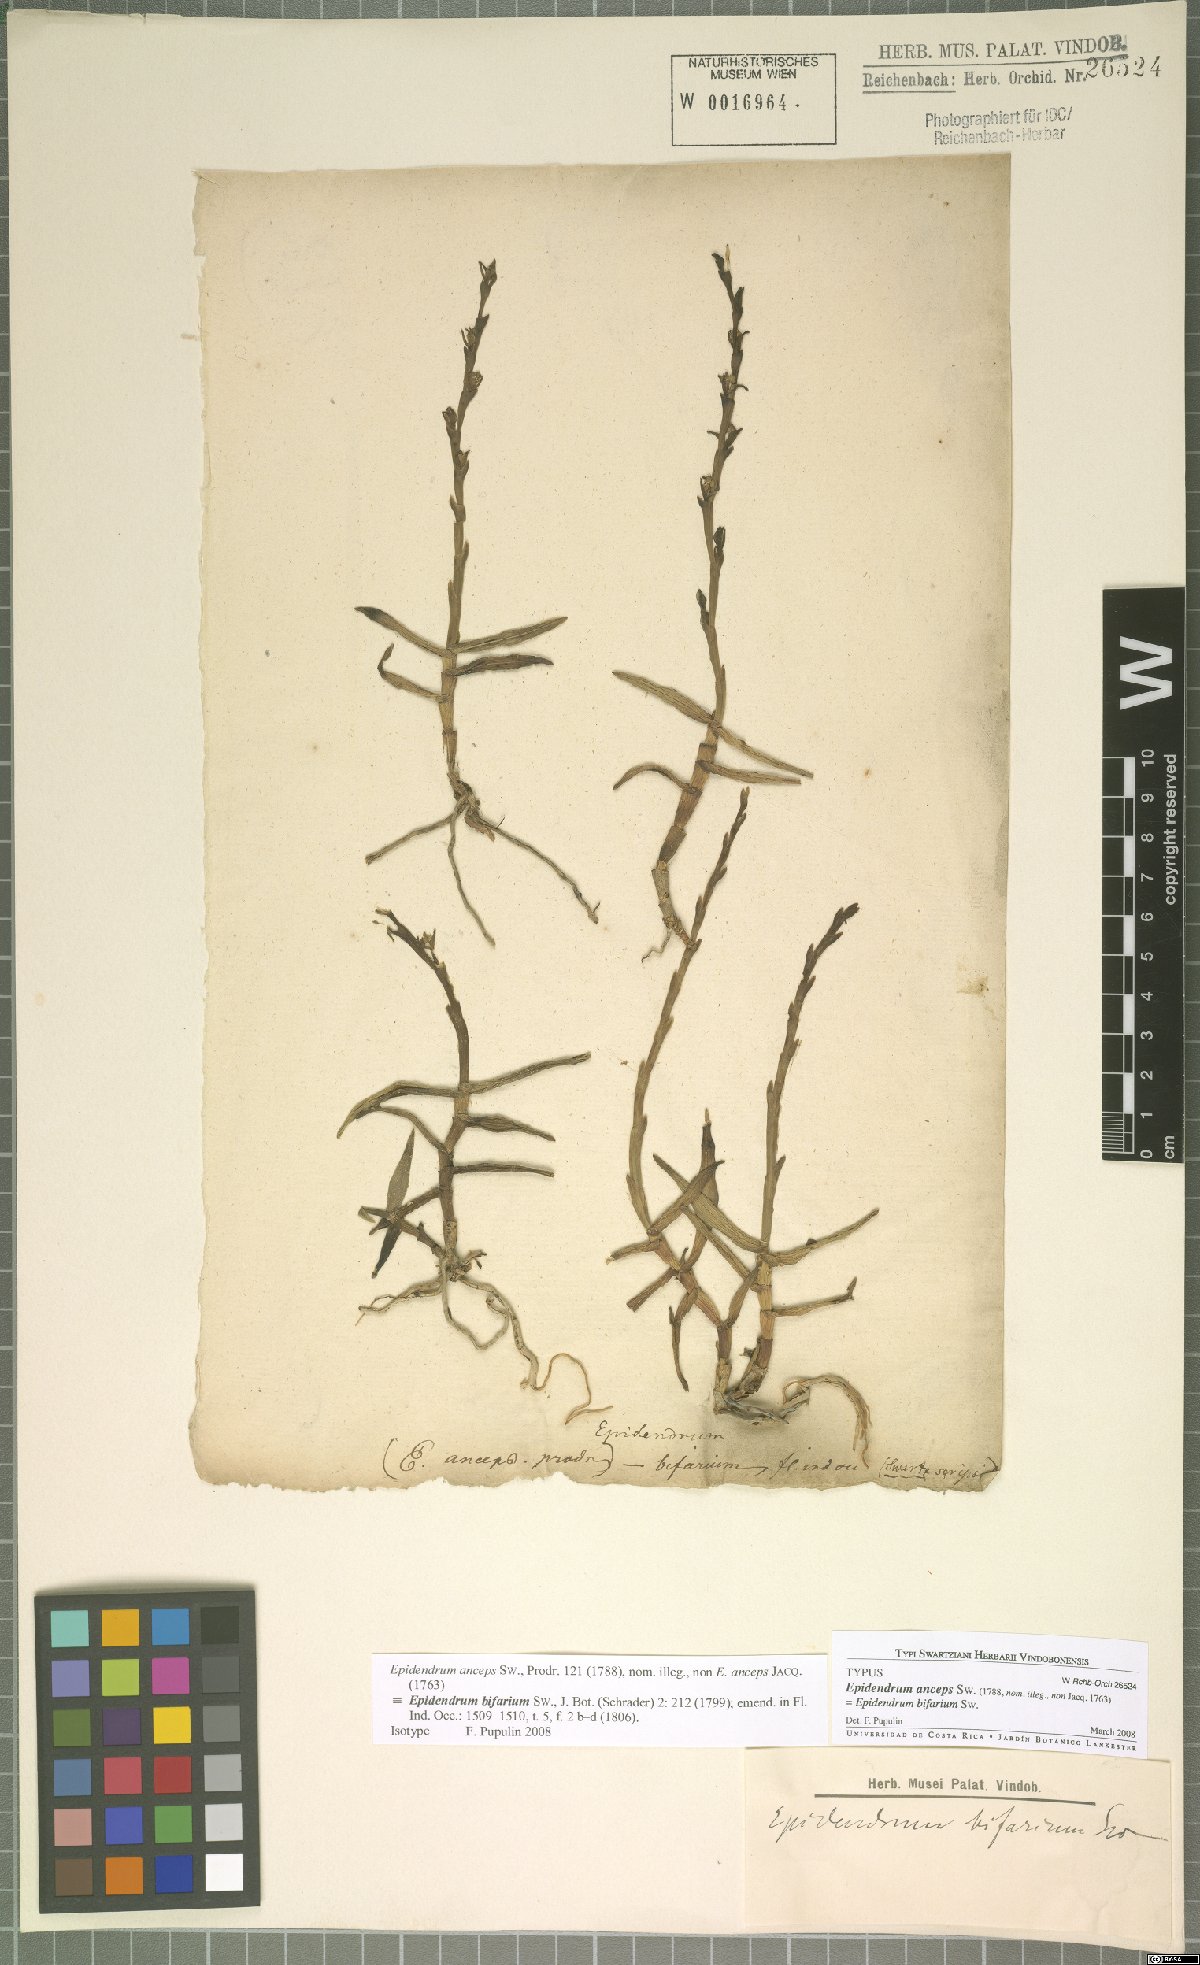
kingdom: Plantae
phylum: Tracheophyta
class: Liliopsida
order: Asparagales
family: Orchidaceae
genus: Epidendrum
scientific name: Epidendrum bifarium
